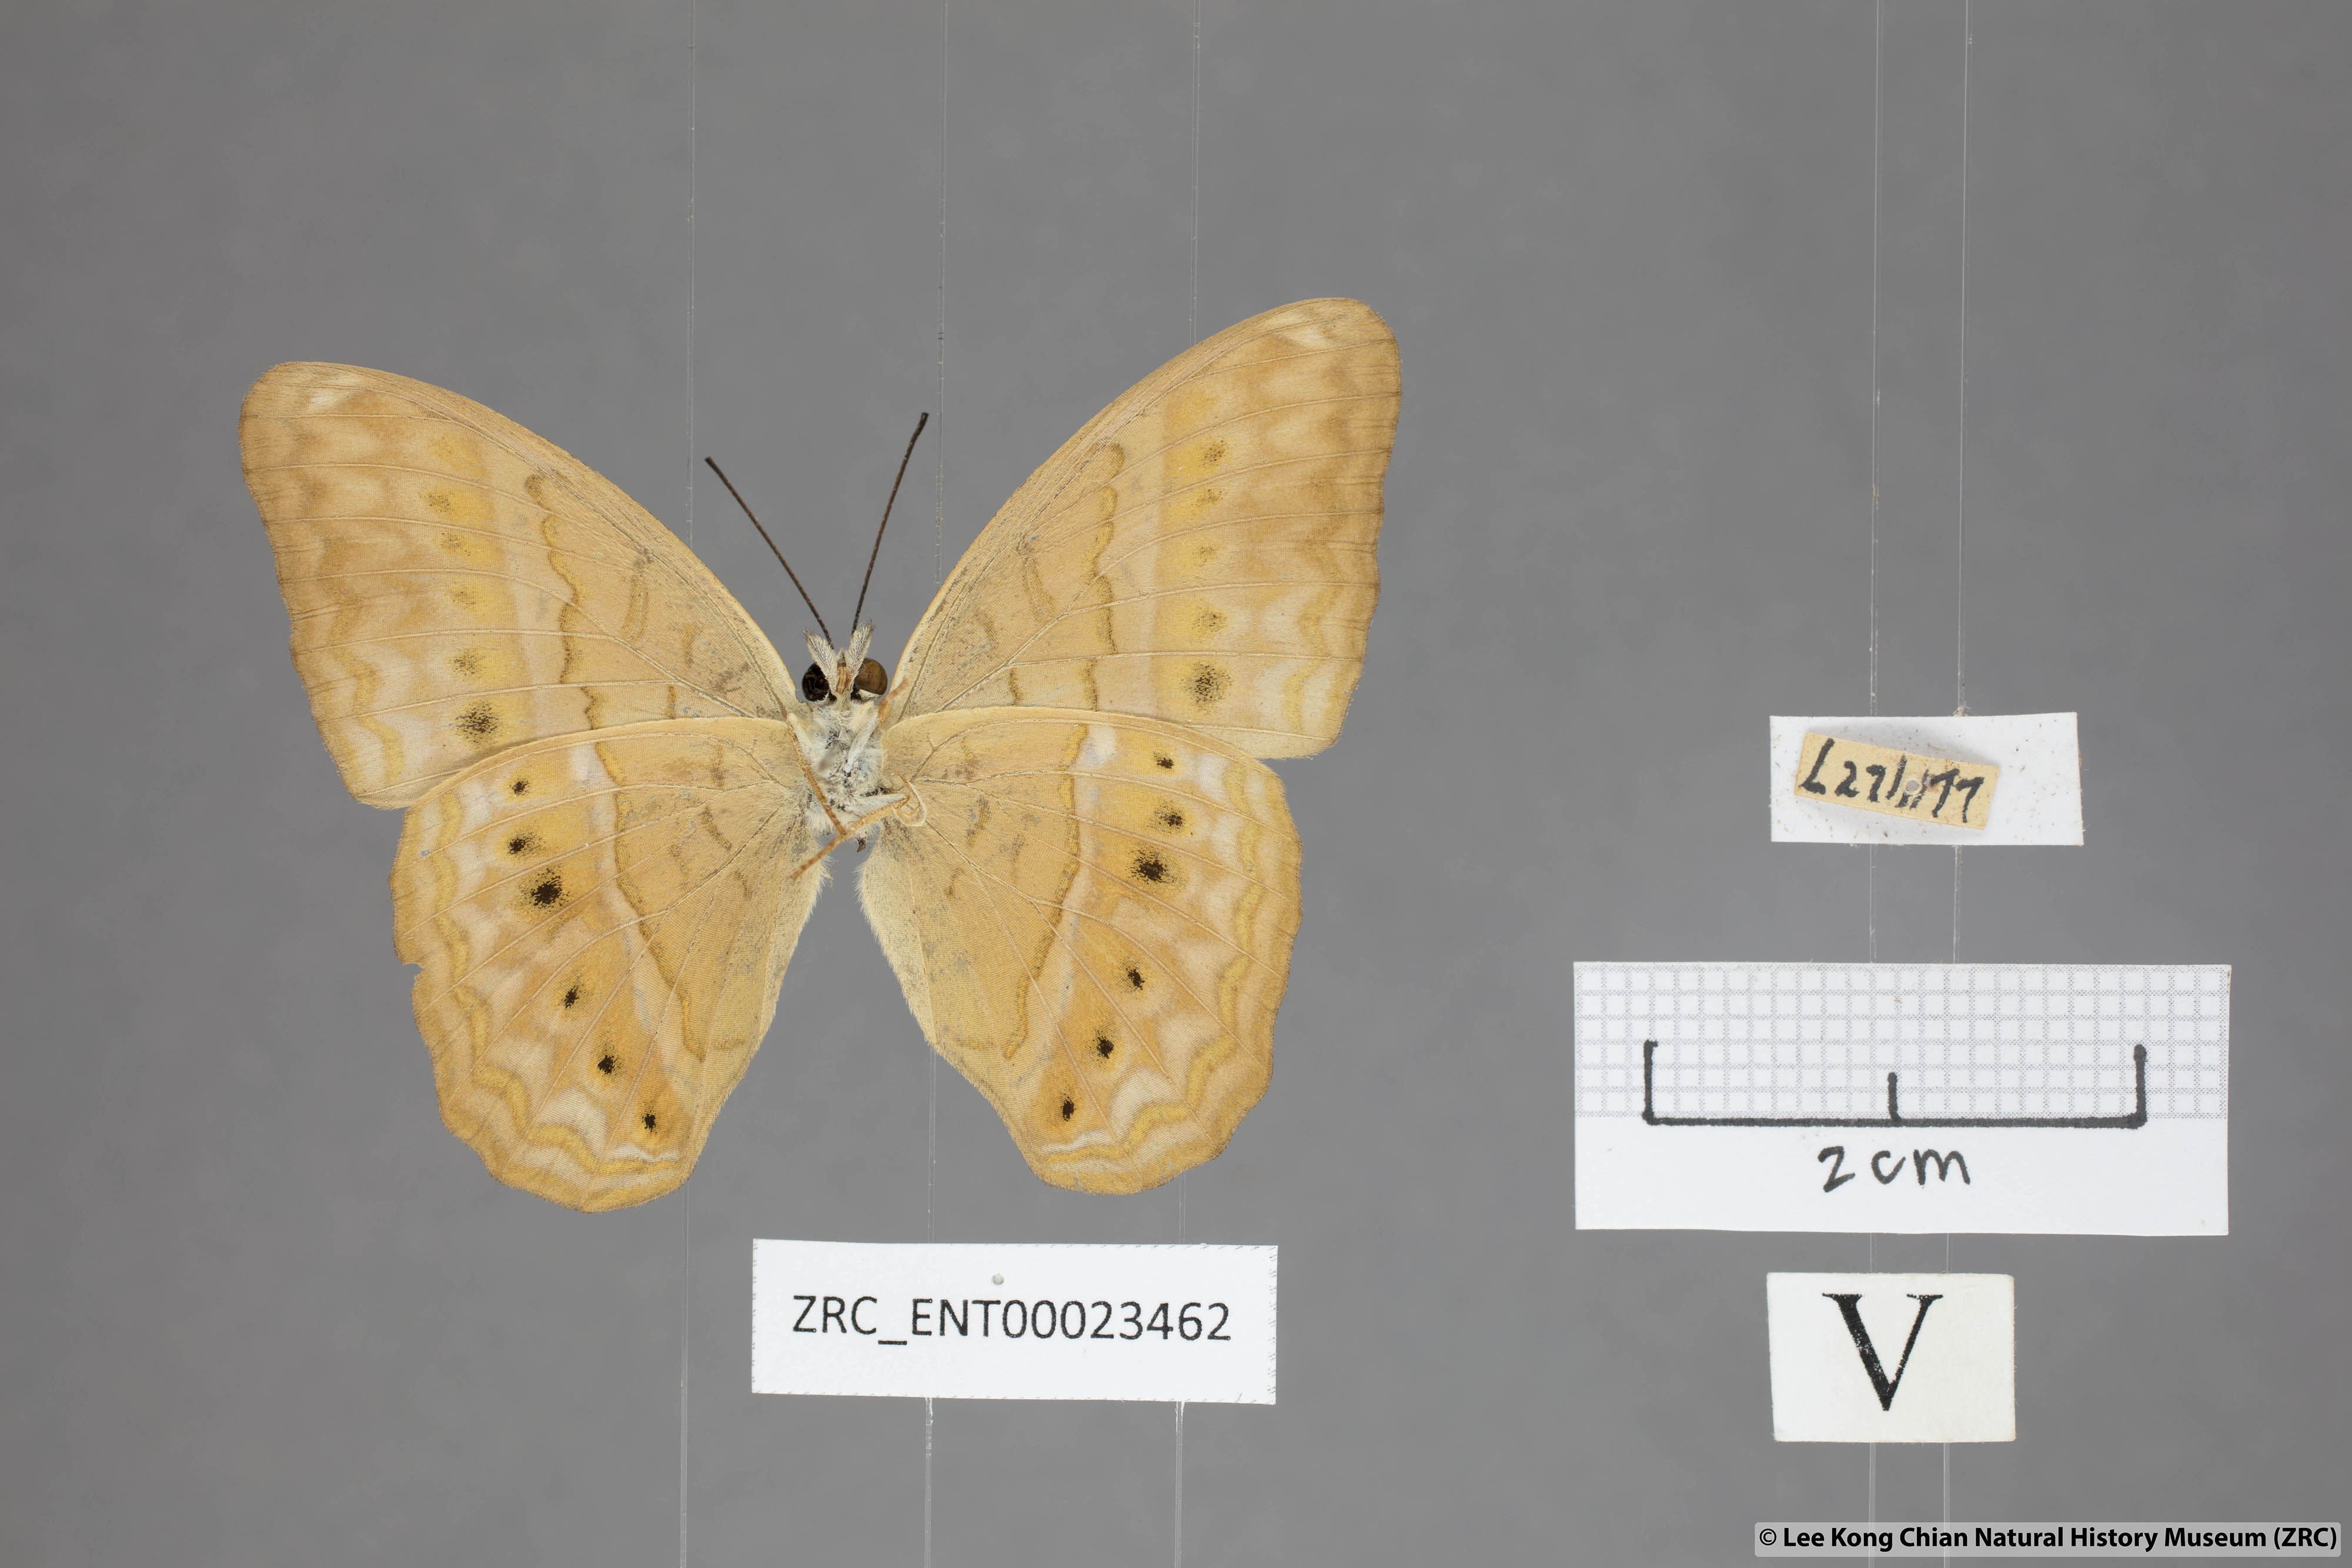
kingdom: Animalia
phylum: Arthropoda
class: Insecta
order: Lepidoptera
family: Nymphalidae
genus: Cirrochroa
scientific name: Cirrochroa surya
